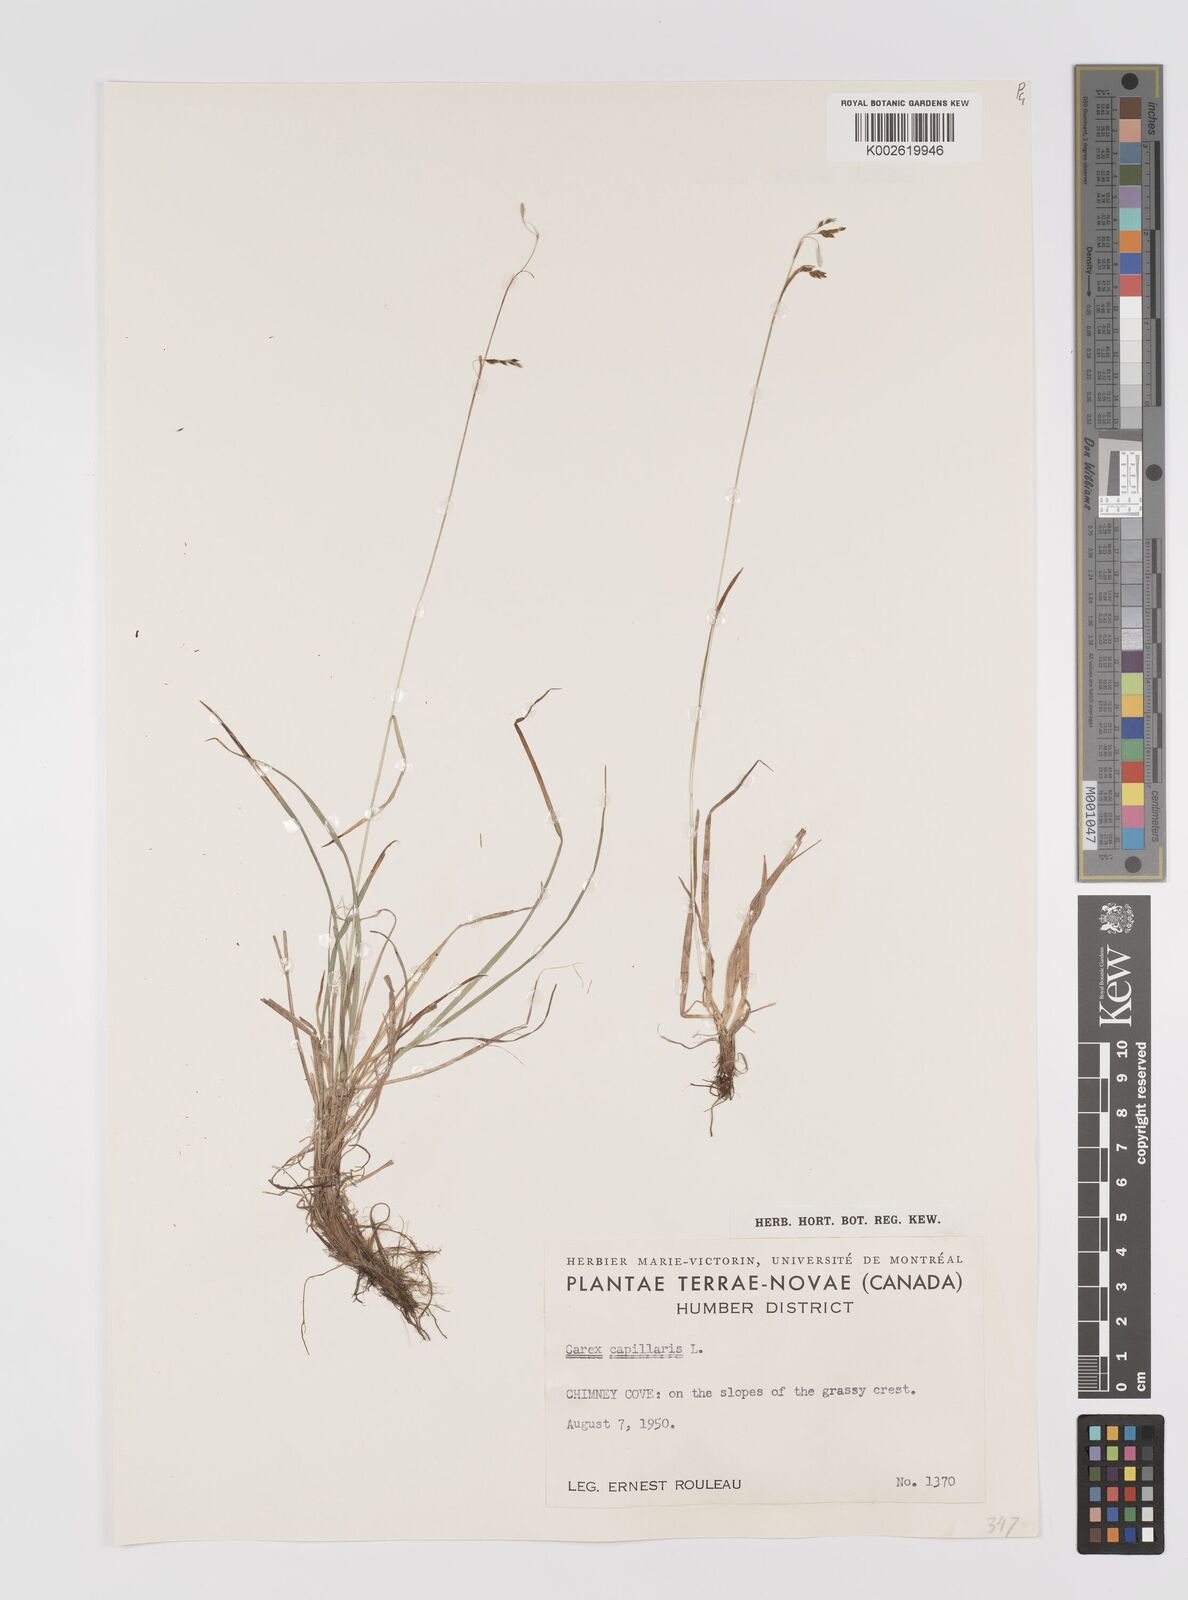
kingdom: Plantae
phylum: Tracheophyta
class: Liliopsida
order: Poales
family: Cyperaceae
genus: Carex
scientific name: Carex capillaris
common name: Hair sedge
